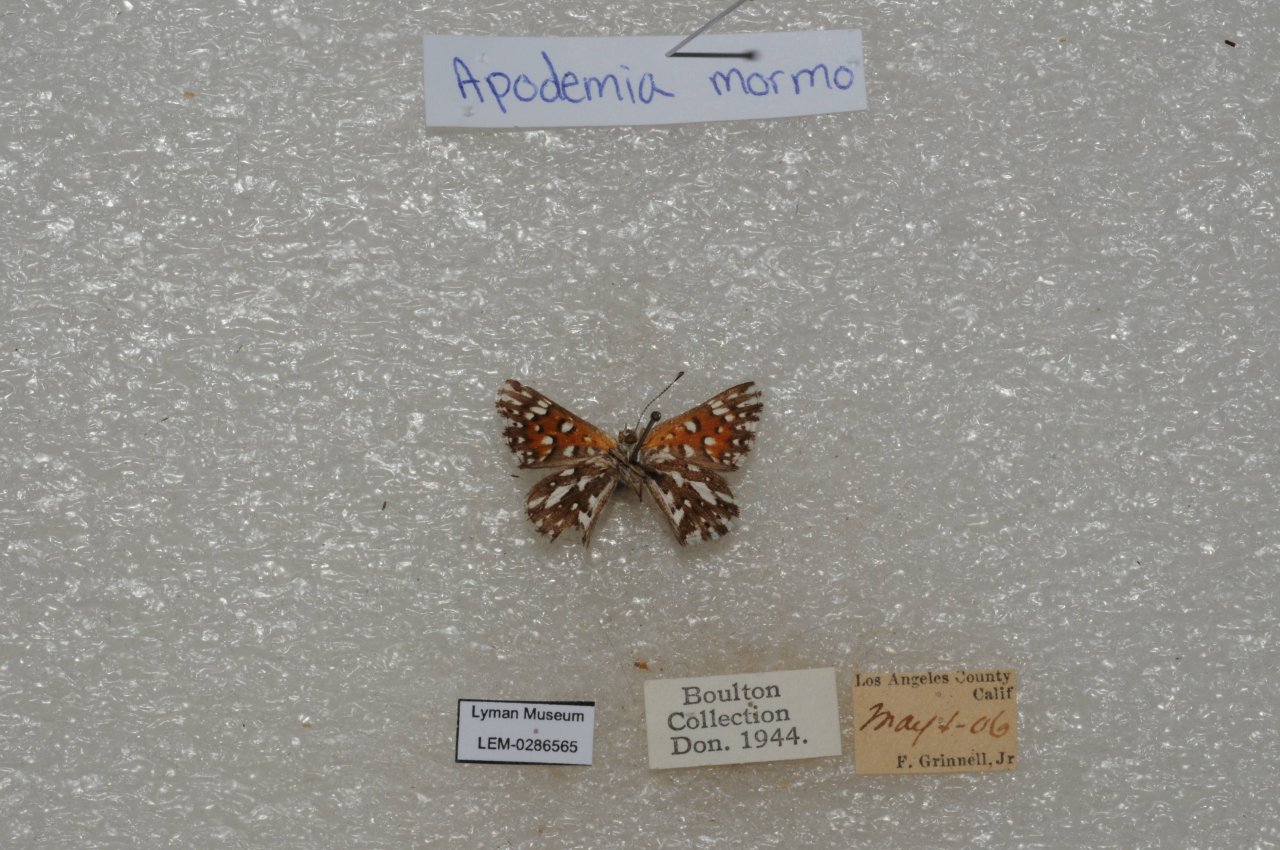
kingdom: Animalia
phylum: Arthropoda
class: Insecta
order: Lepidoptera
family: Riodinidae
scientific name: Riodinidae
